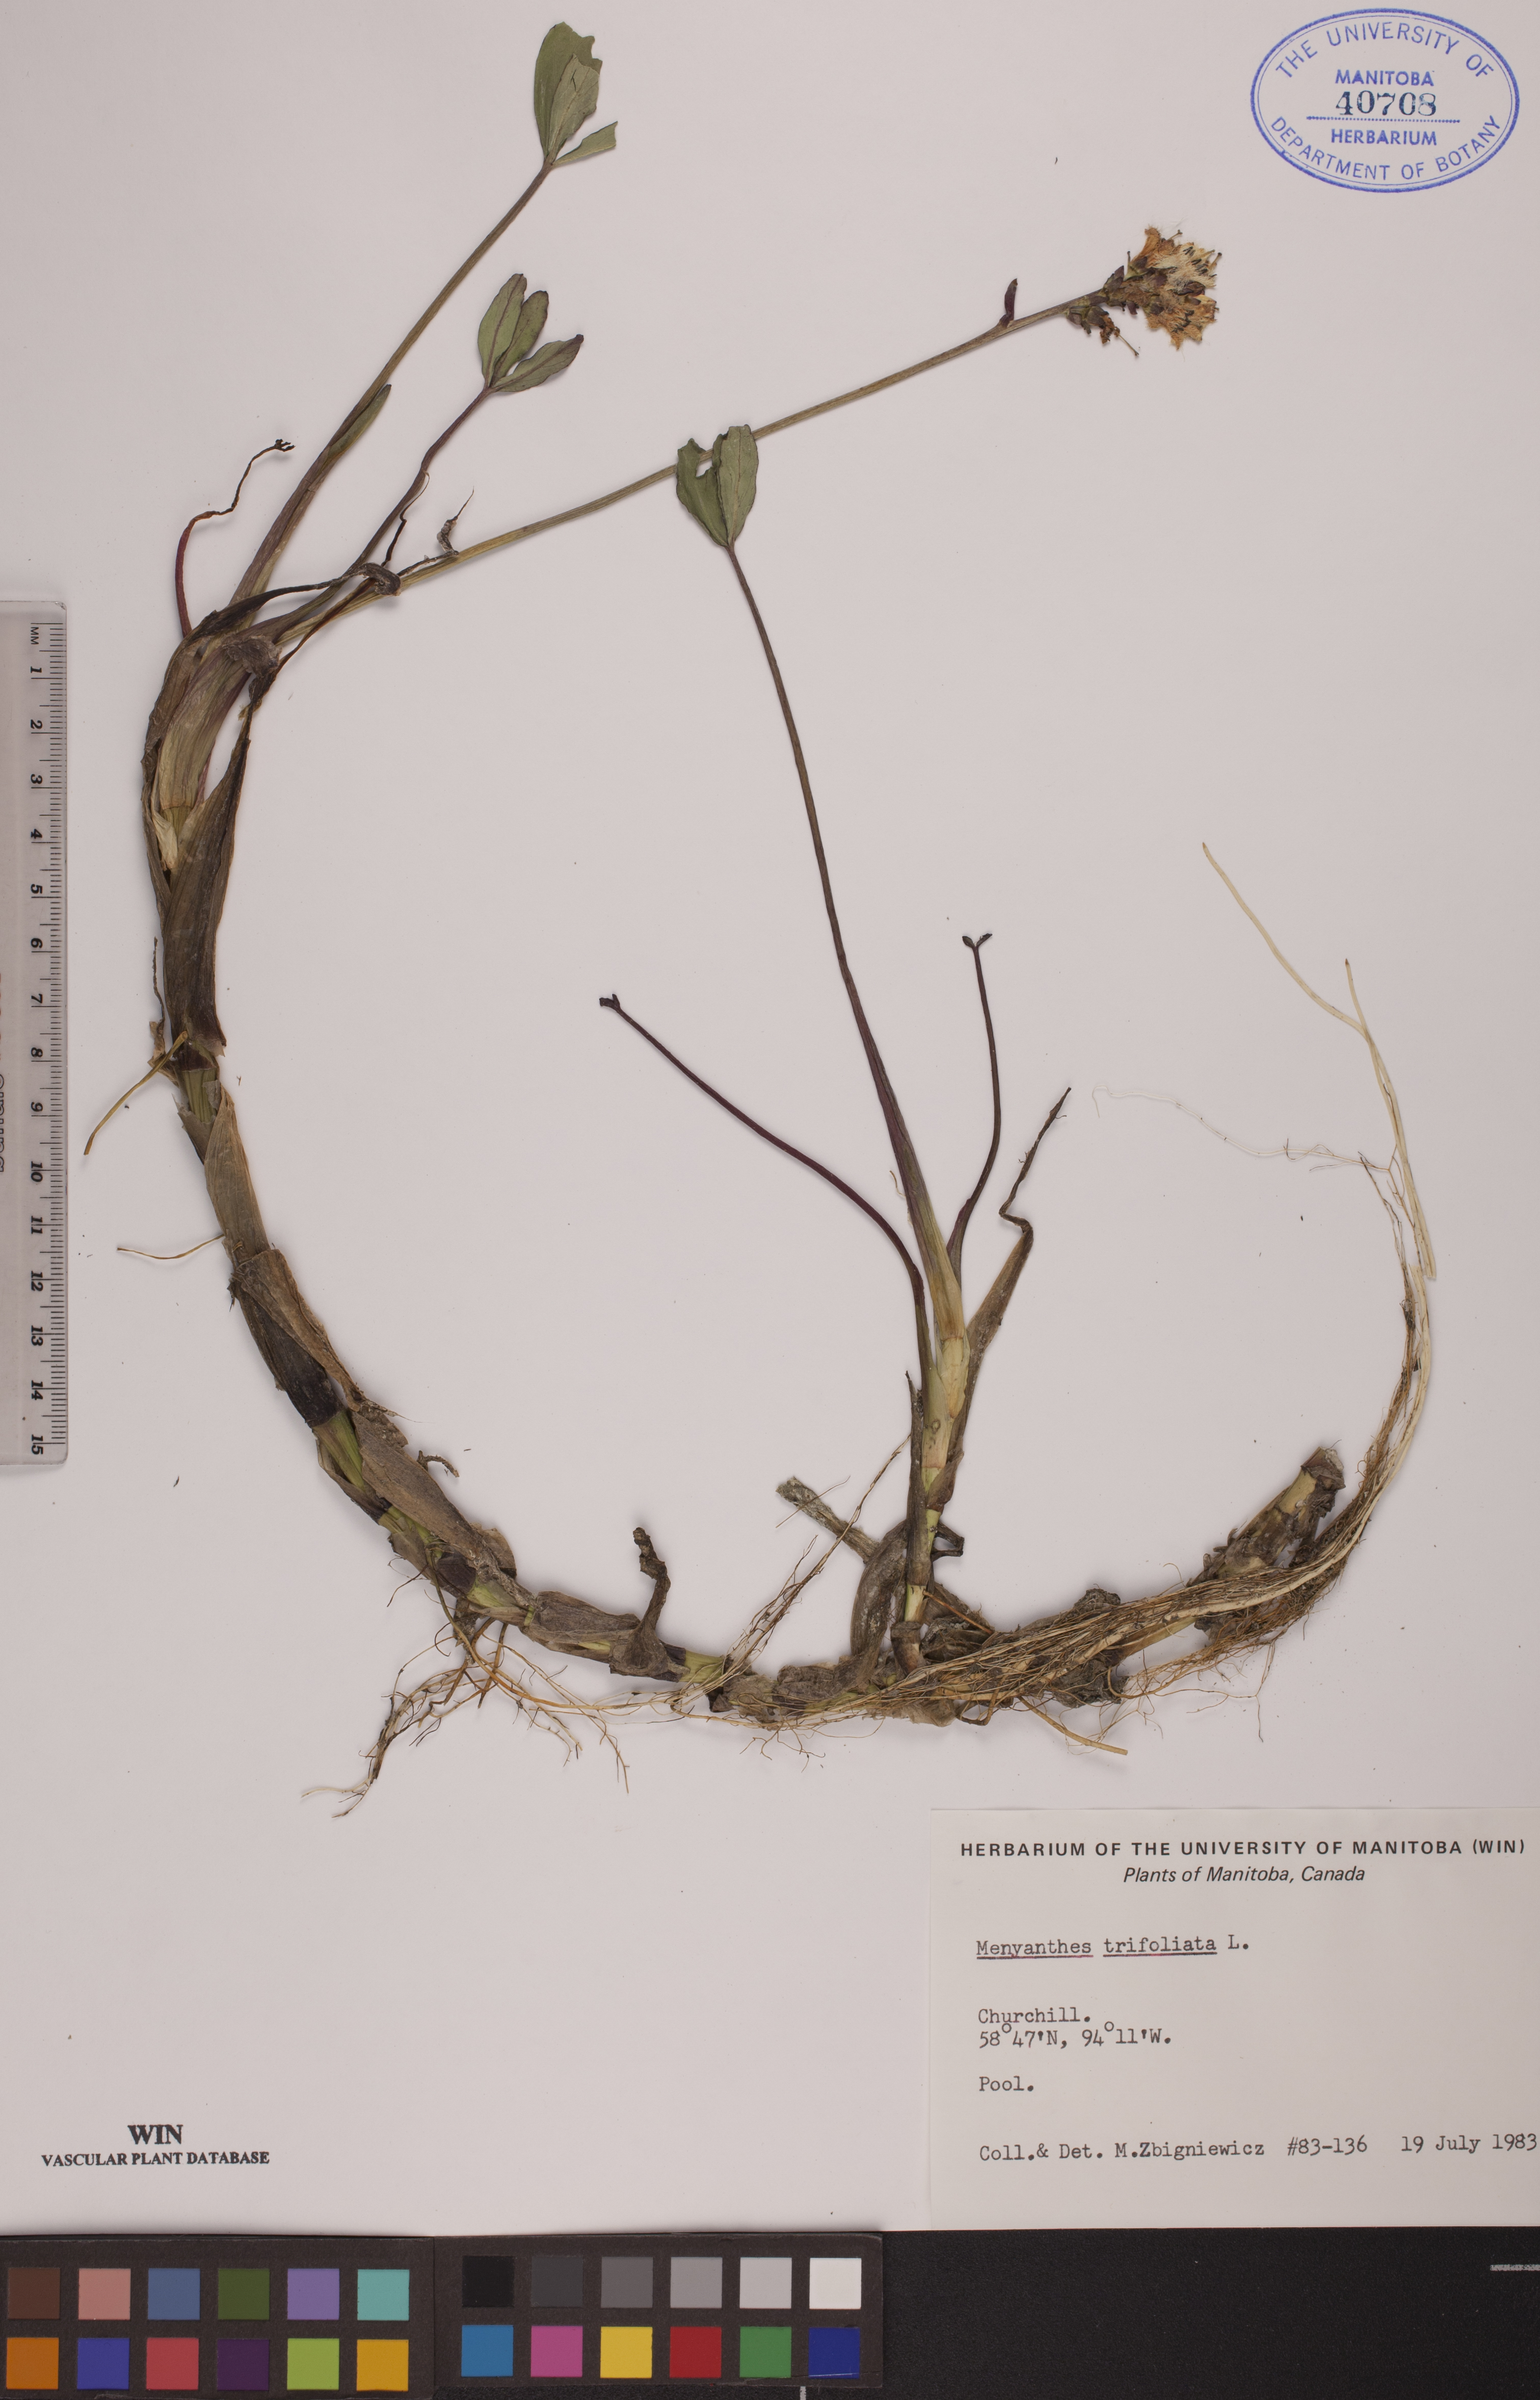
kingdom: Plantae
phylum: Tracheophyta
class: Magnoliopsida
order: Asterales
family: Menyanthaceae
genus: Menyanthes
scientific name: Menyanthes trifoliata
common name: Bogbean
